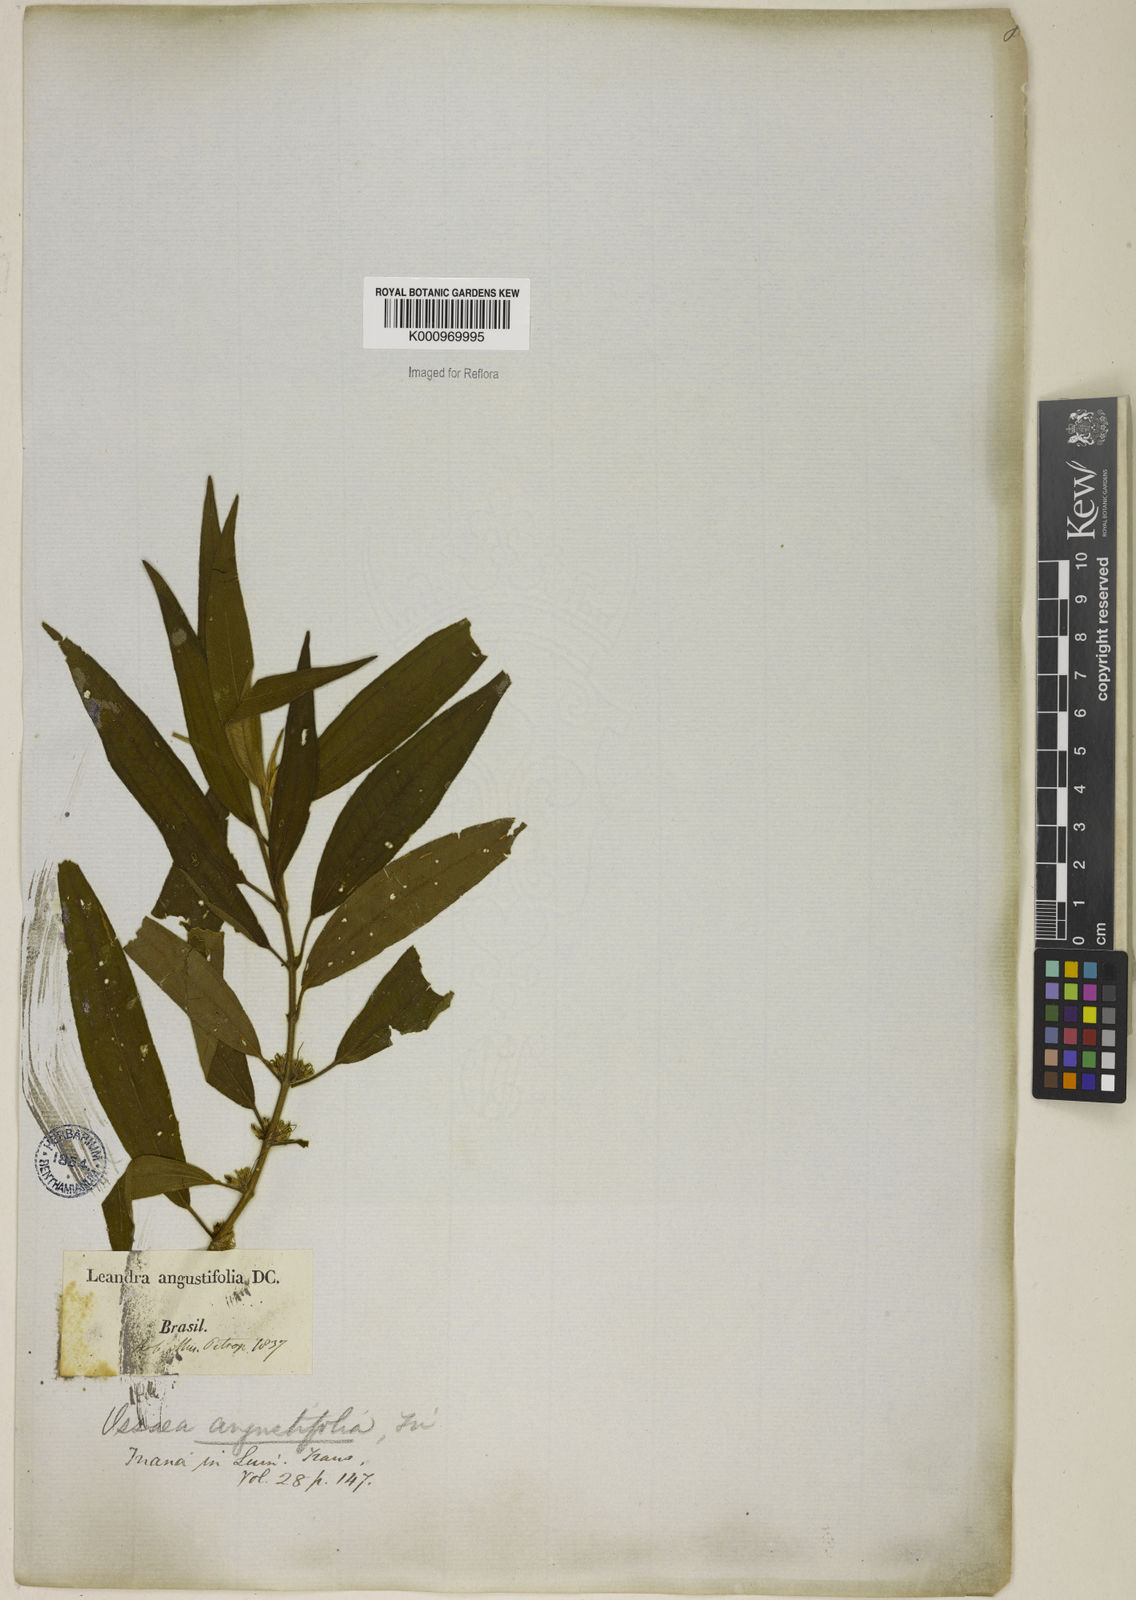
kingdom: Plantae
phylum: Tracheophyta
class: Magnoliopsida
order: Myrtales
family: Melastomataceae
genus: Miconia
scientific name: Miconia corcovadensis
